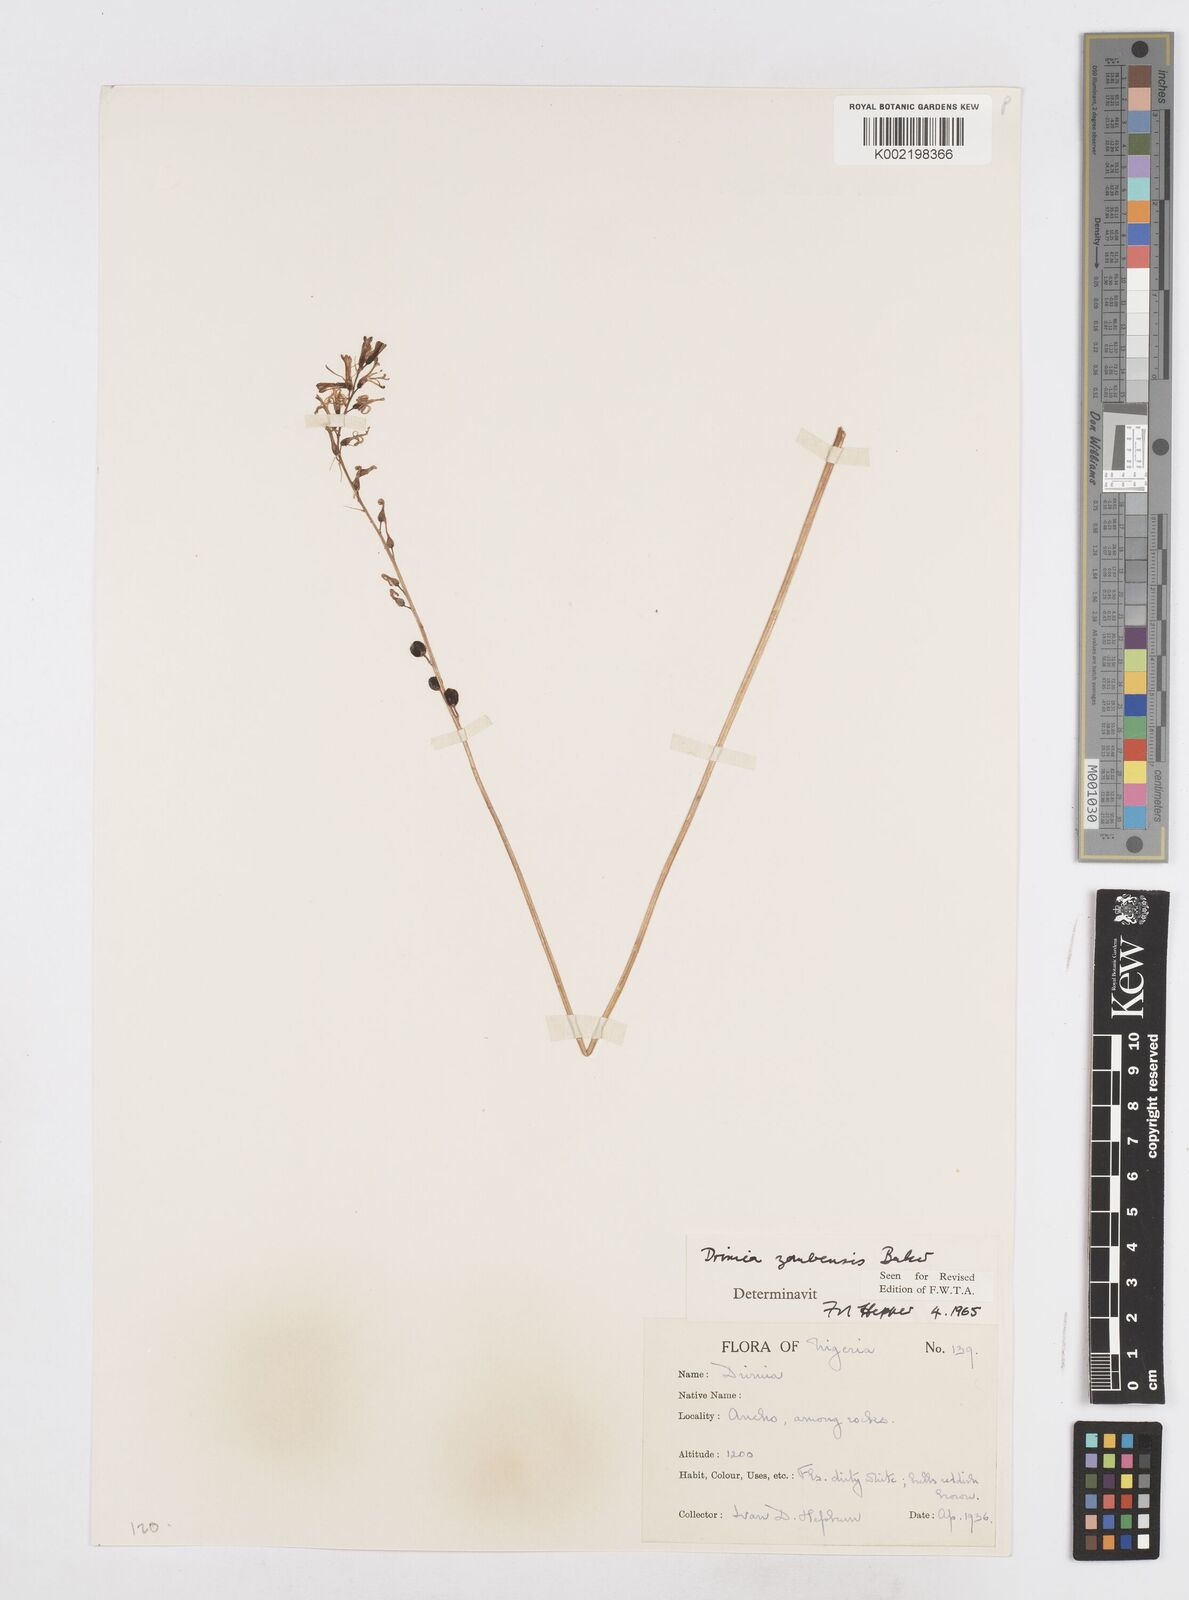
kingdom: Plantae
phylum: Tracheophyta
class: Liliopsida
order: Asparagales
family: Asparagaceae
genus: Drimia
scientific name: Drimia elata
